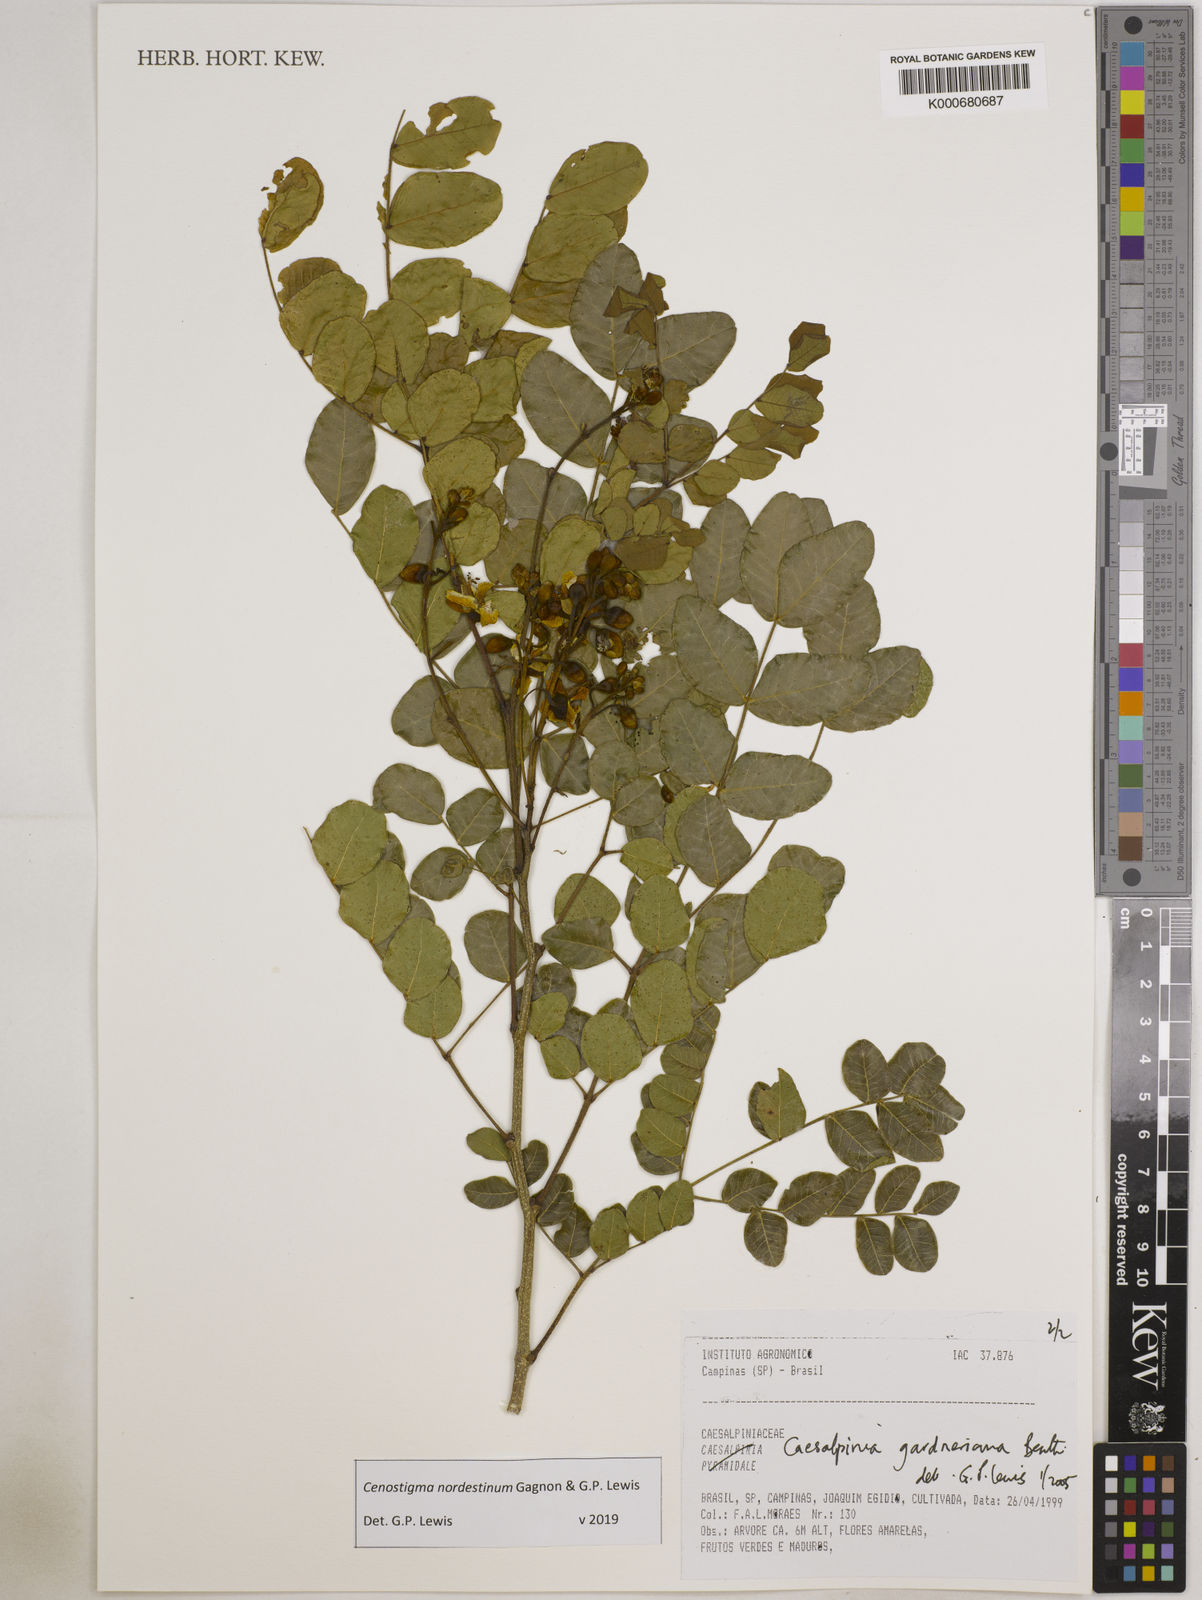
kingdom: Plantae
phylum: Tracheophyta
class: Magnoliopsida
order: Fabales
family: Fabaceae
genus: Cenostigma
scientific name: Cenostigma nordestinum
